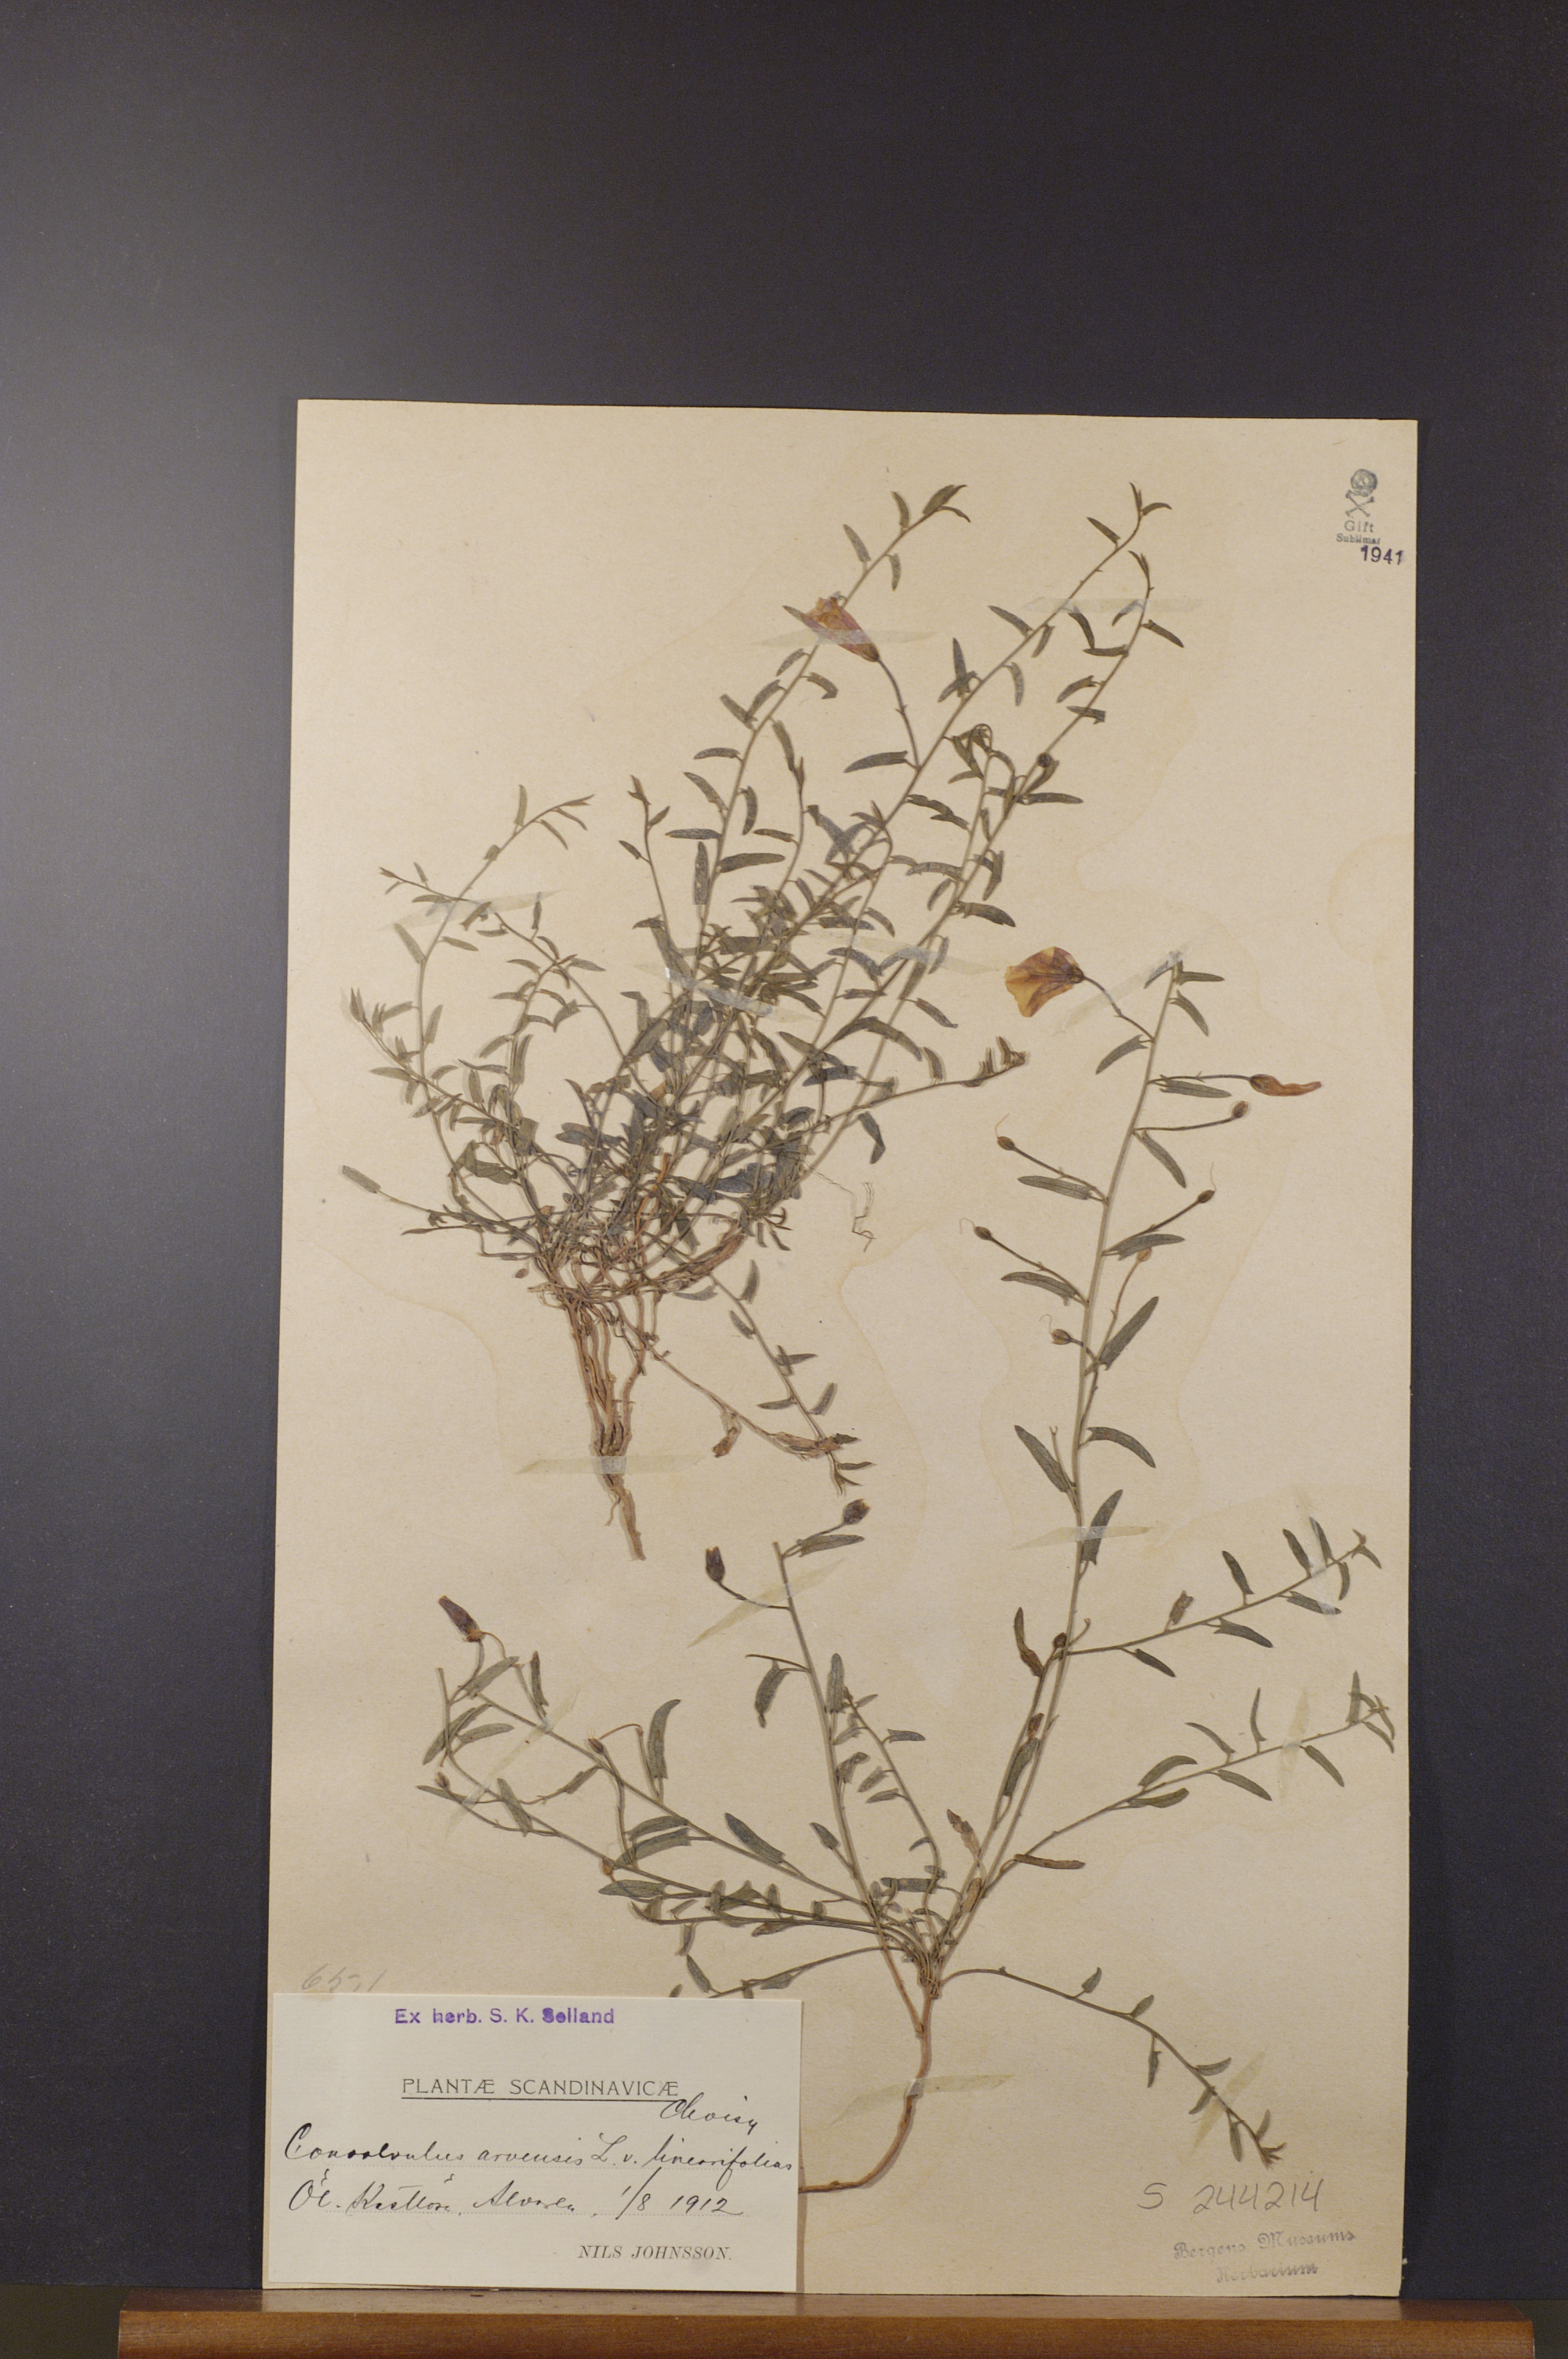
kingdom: Plantae
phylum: Tracheophyta
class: Magnoliopsida
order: Solanales
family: Convolvulaceae
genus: Convolvulus
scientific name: Convolvulus arvensis
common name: Field bindweed
